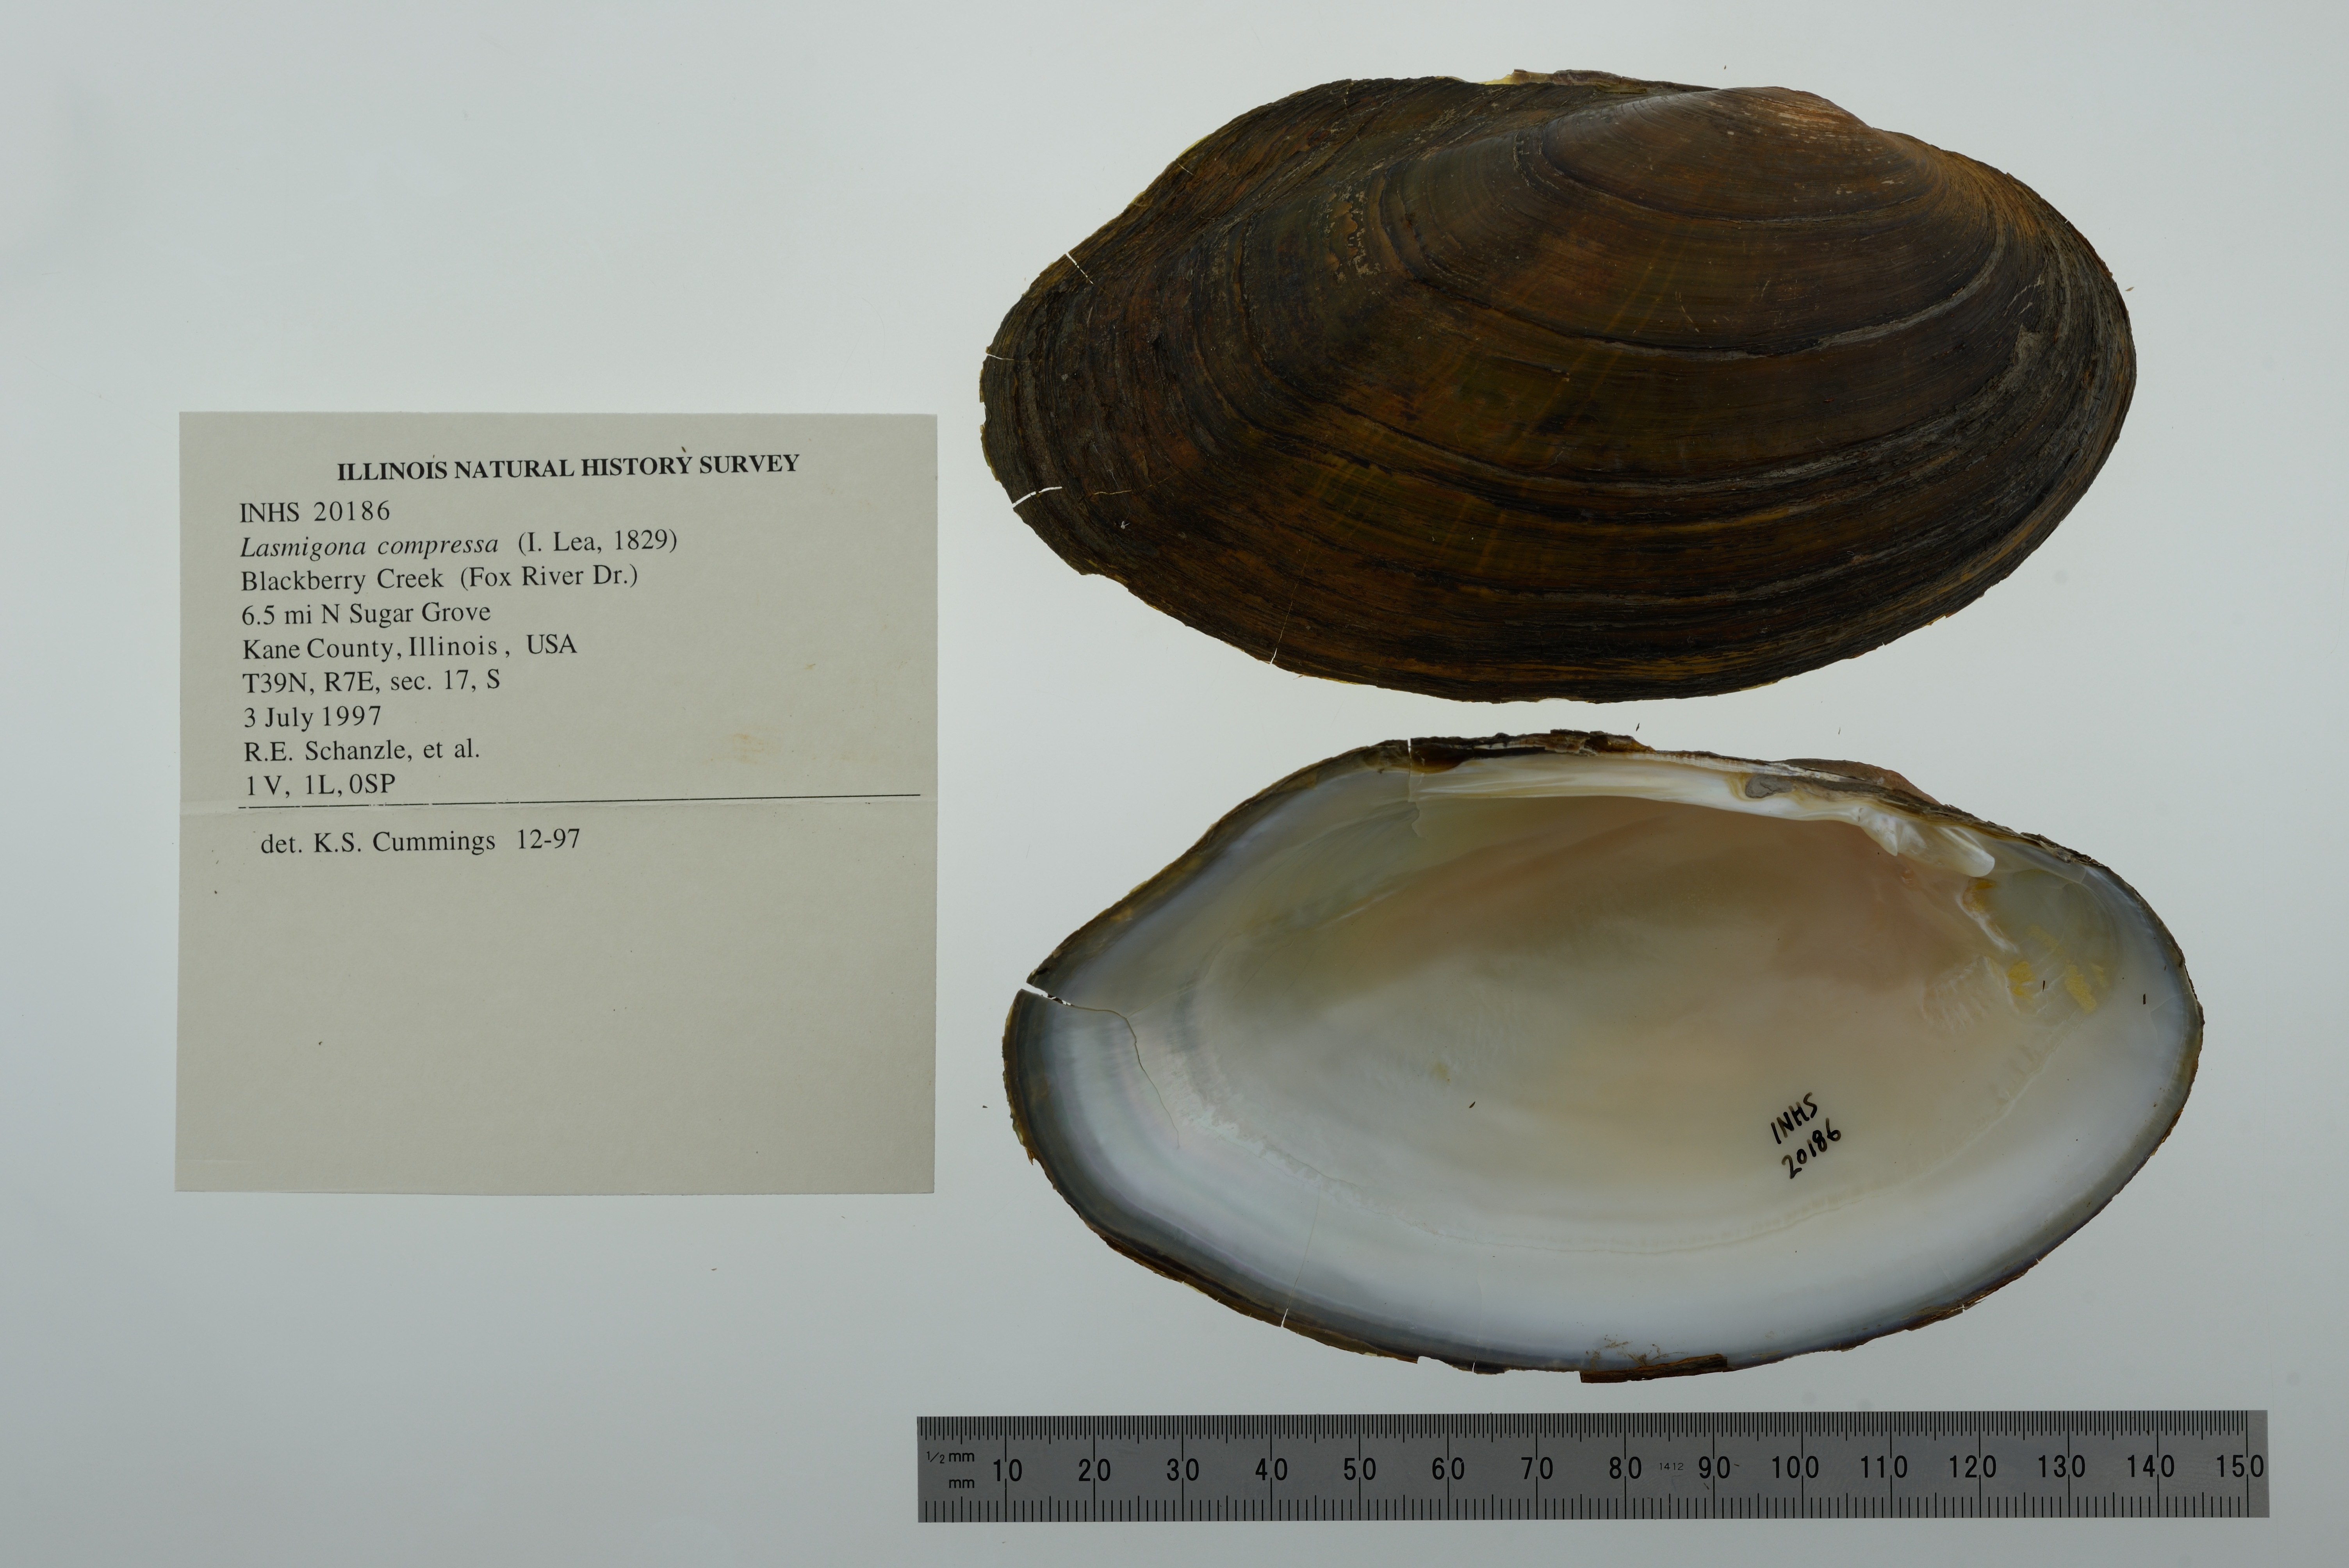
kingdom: Animalia
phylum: Mollusca
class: Bivalvia
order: Unionida
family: Unionidae
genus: Lasmigona
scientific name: Lasmigona compressa
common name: Creek heelsplitter
